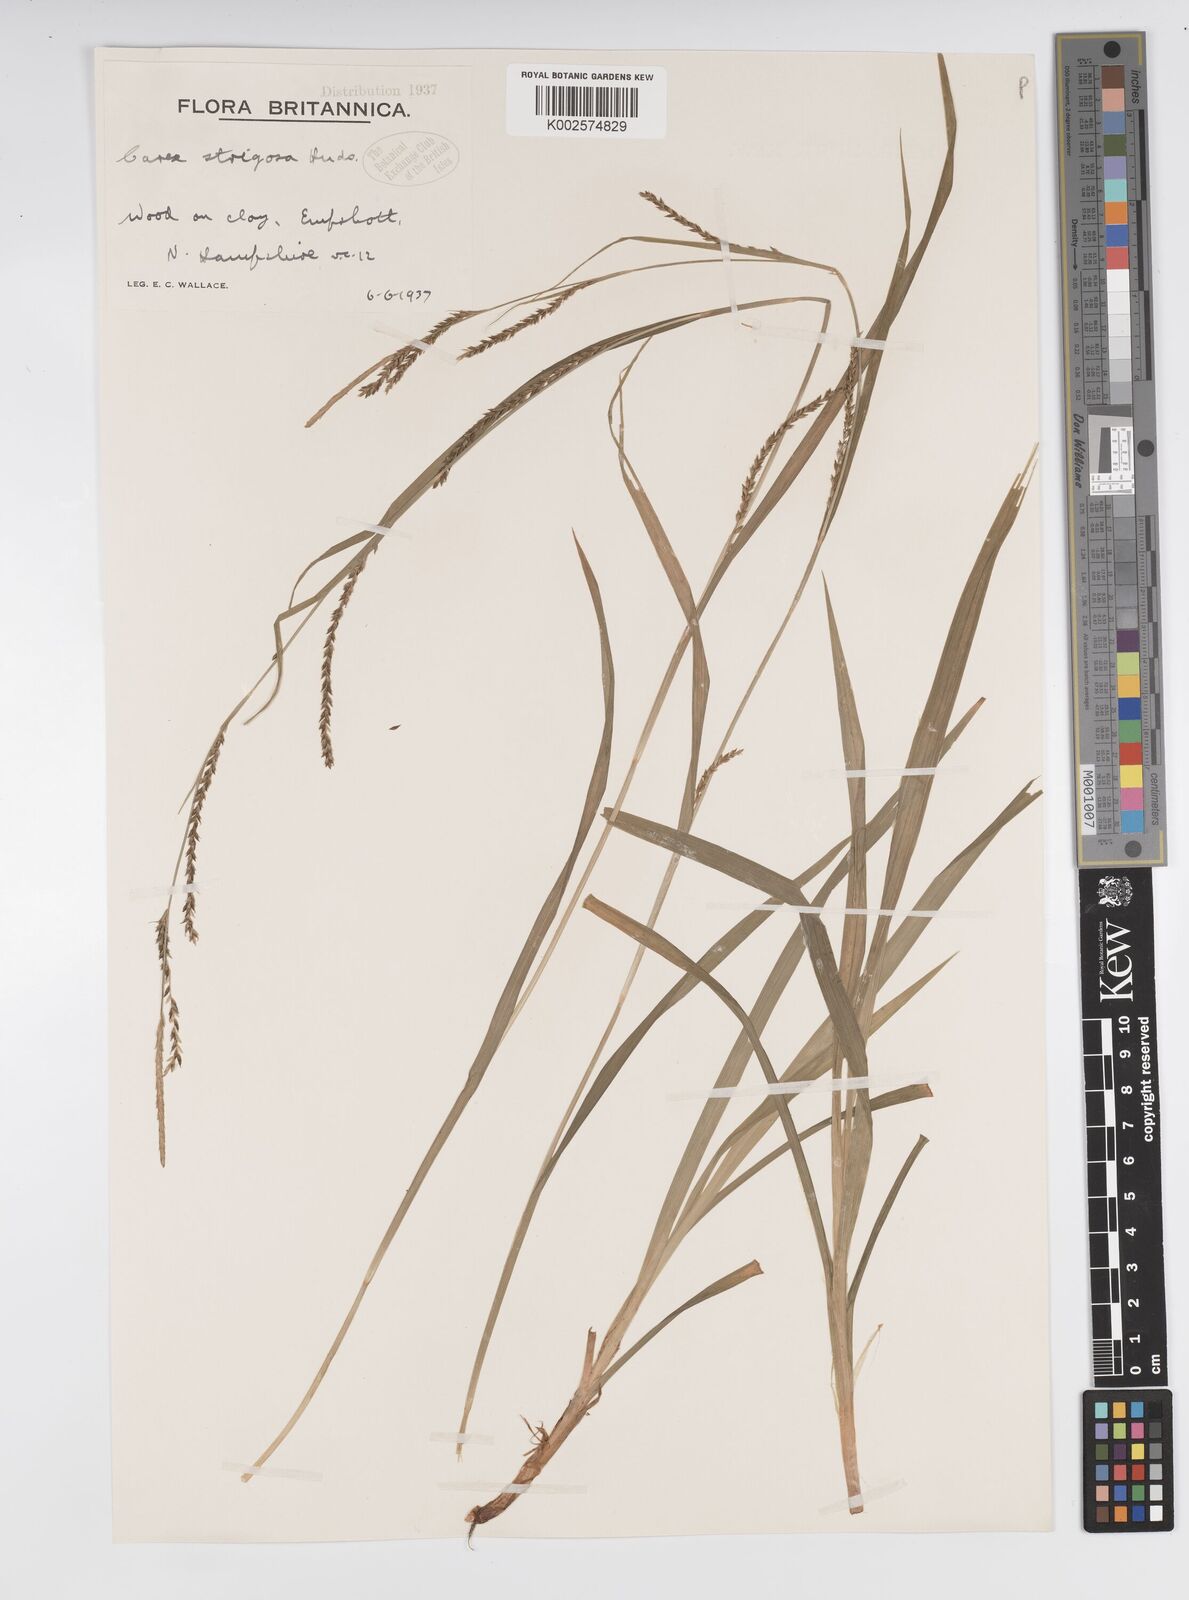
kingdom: Plantae
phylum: Tracheophyta
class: Liliopsida
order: Poales
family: Cyperaceae
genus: Carex
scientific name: Carex strigosa
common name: Thin-spiked wood-sedge
